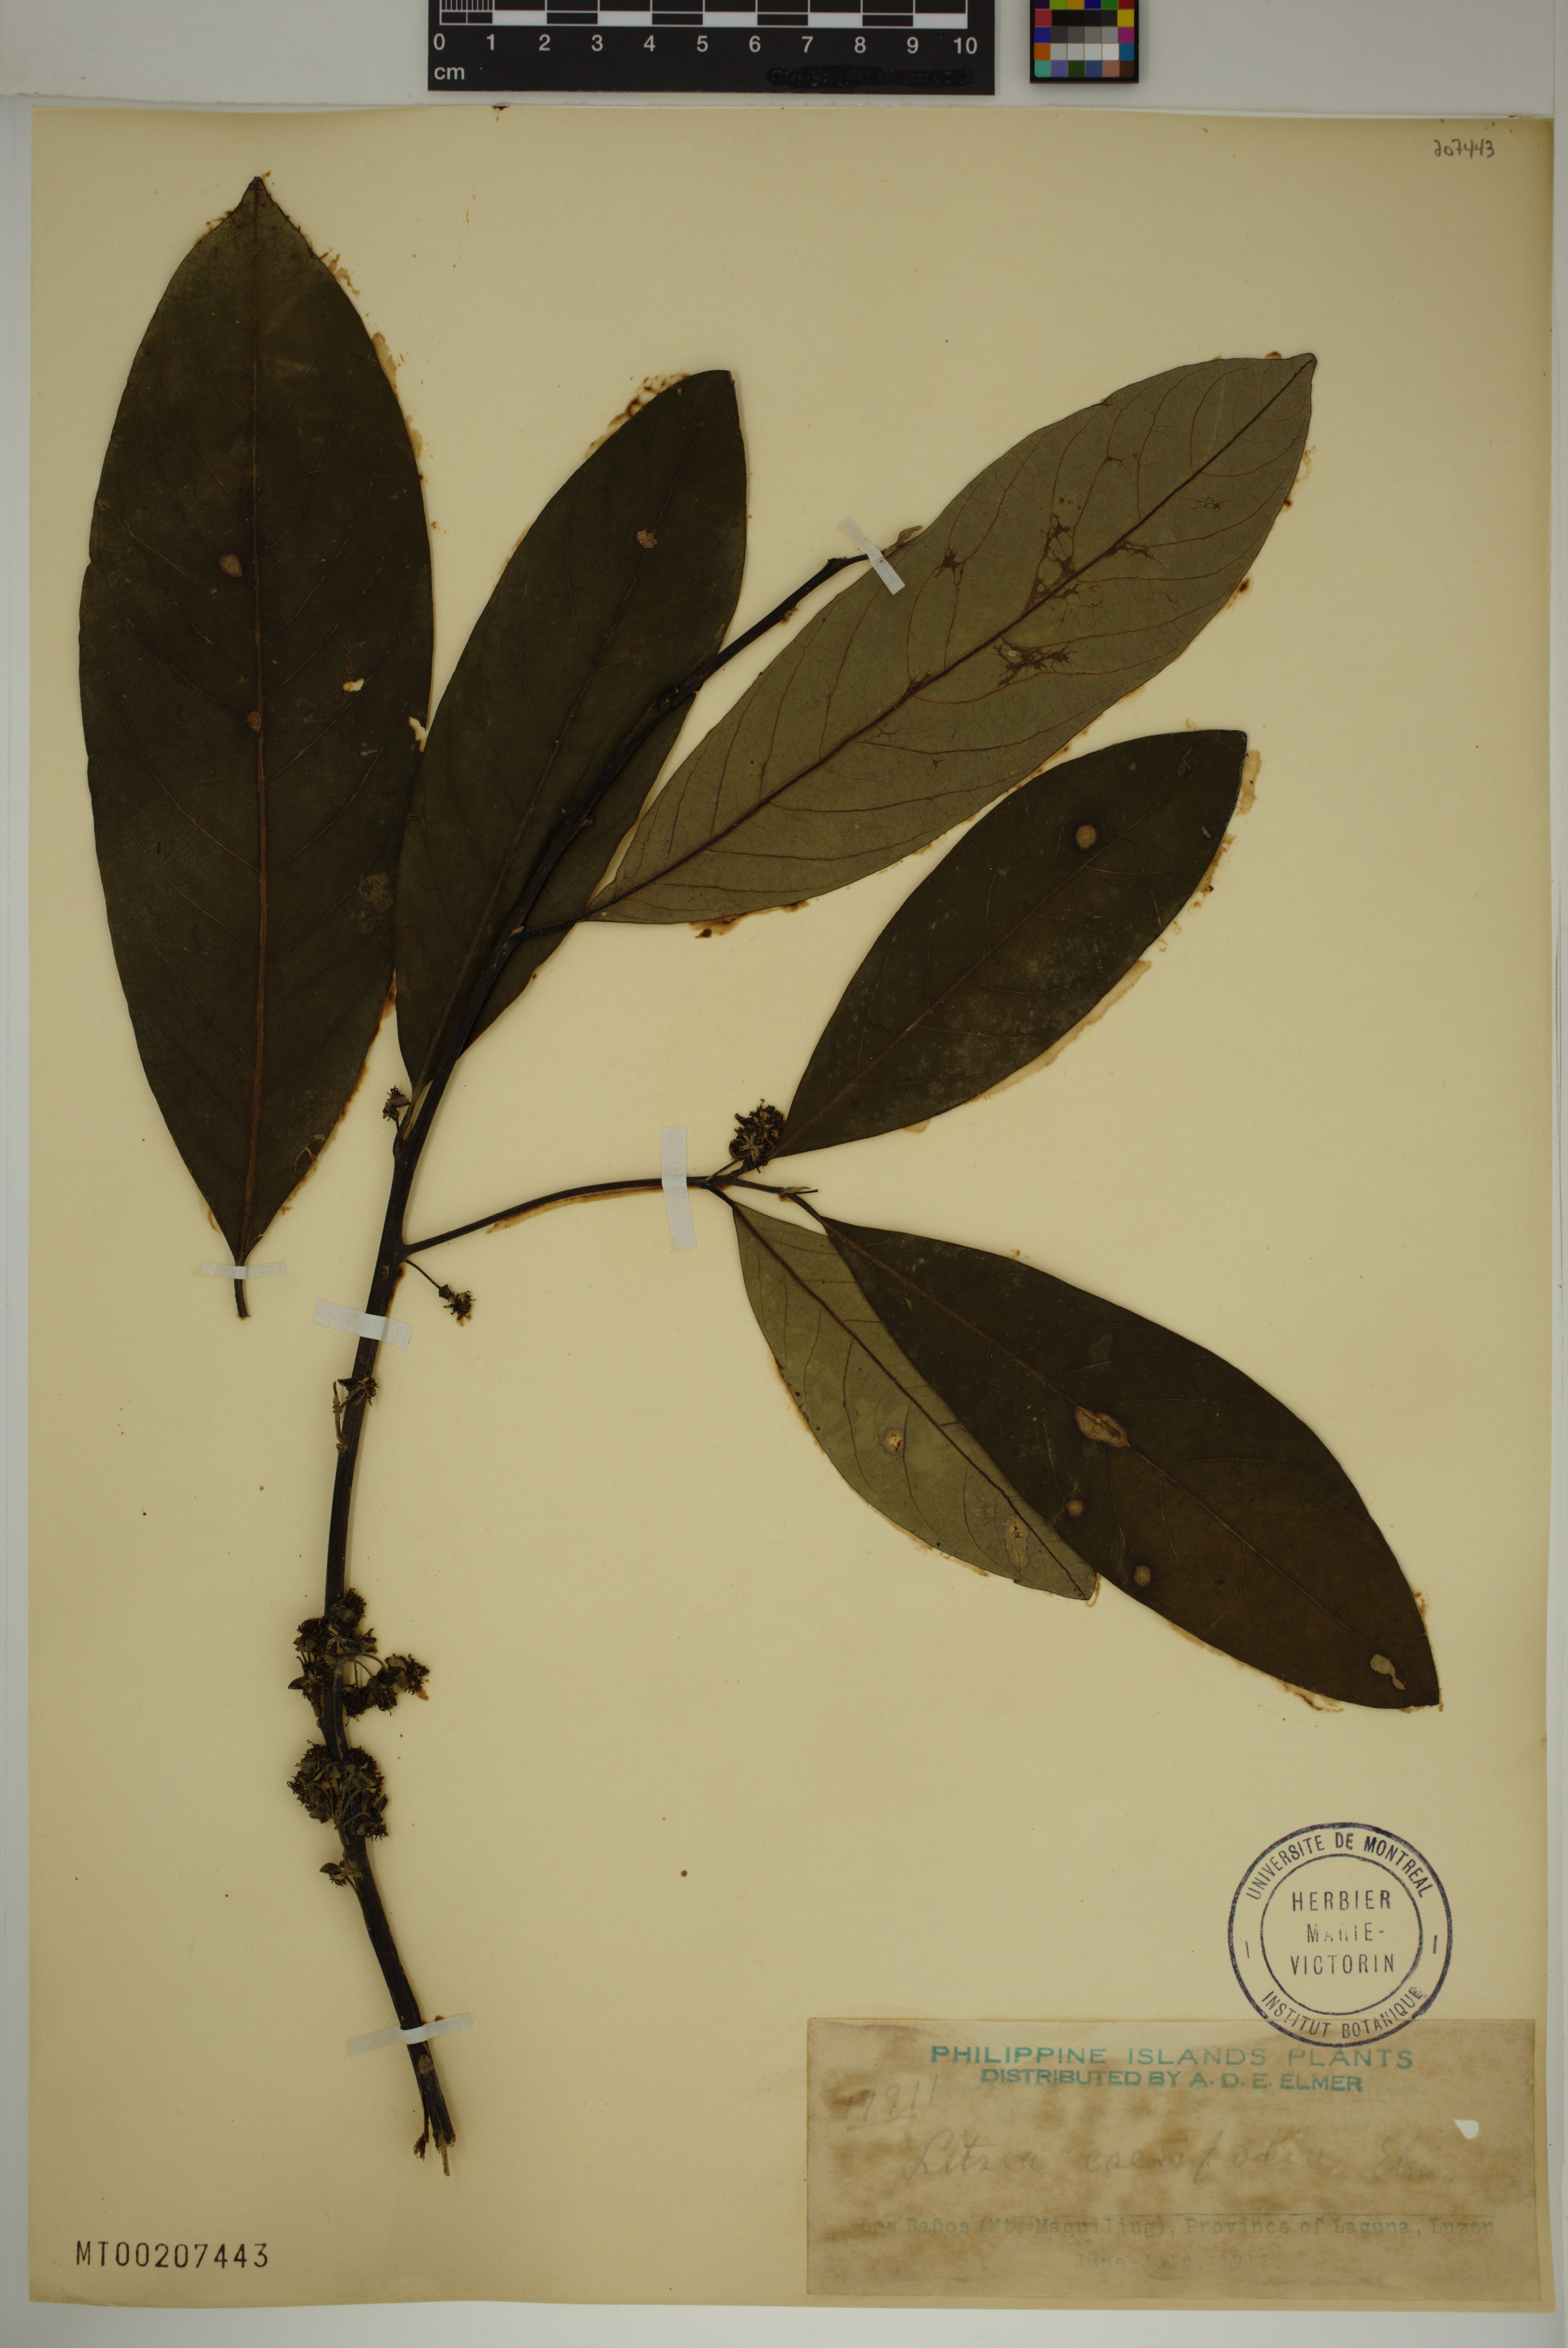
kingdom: Plantae
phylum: Tracheophyta
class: Magnoliopsida
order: Laurales
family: Lauraceae
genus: Litsea
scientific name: Litsea caesifolia
